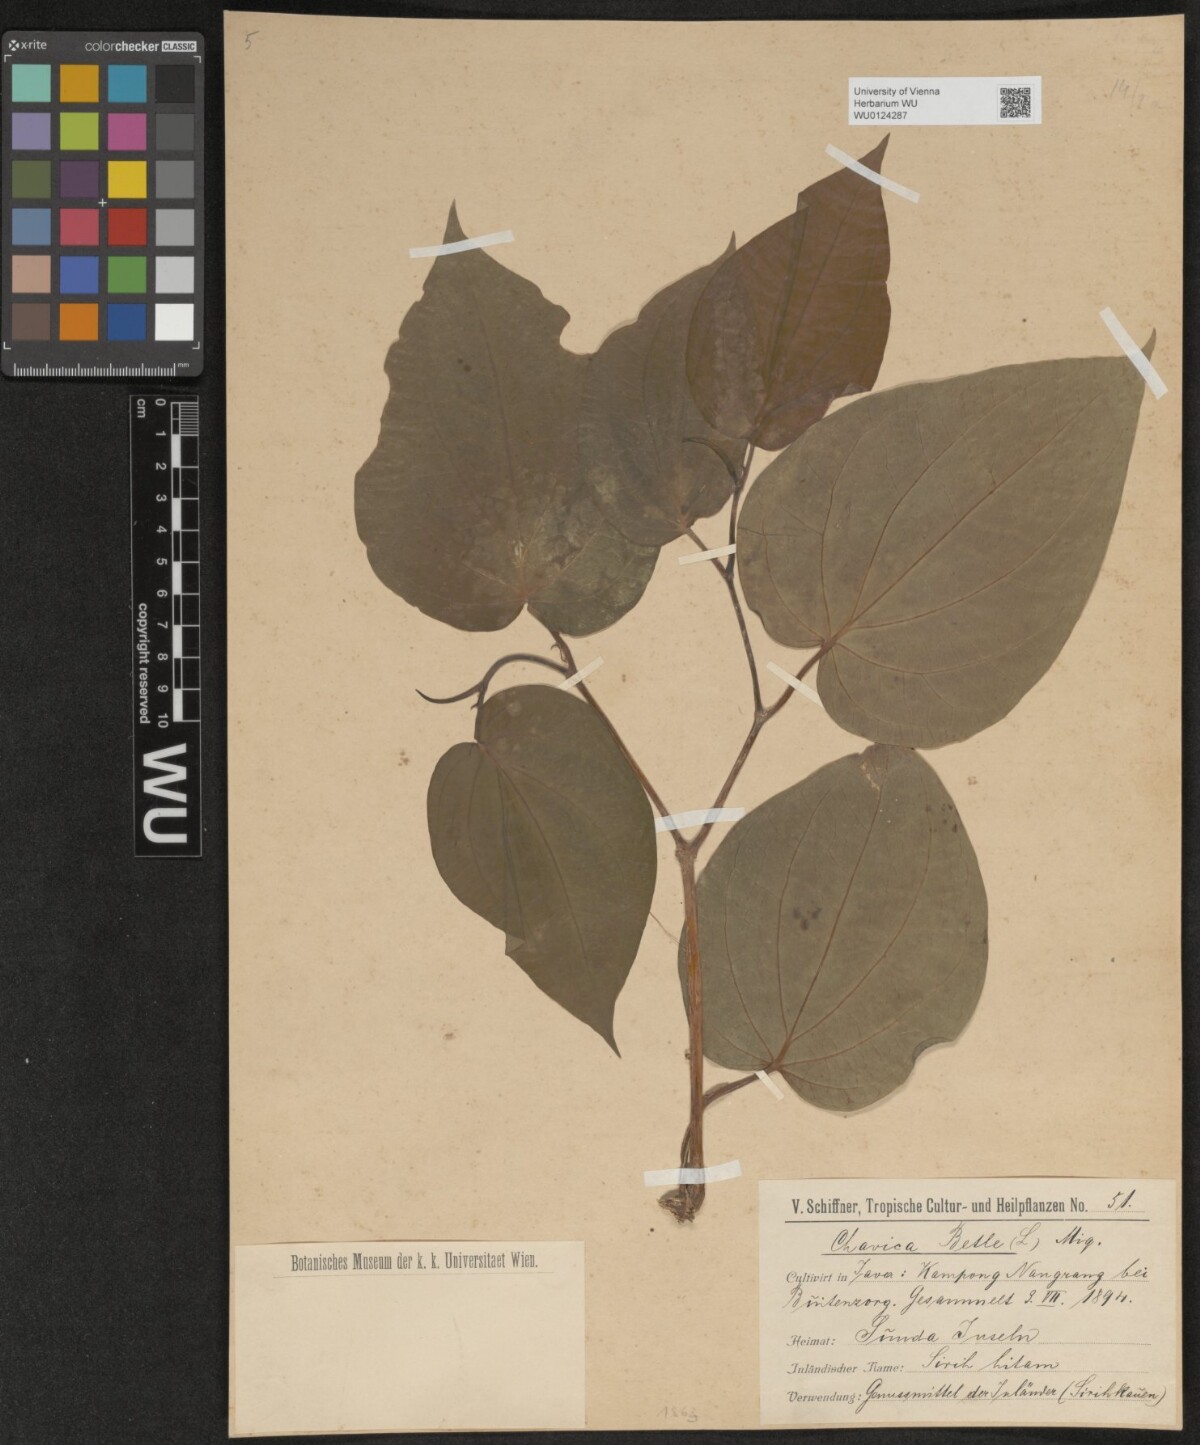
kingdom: Plantae
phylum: Tracheophyta
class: Magnoliopsida
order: Piperales
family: Piperaceae
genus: Piper
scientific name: Piper betle
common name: Betel pepper
